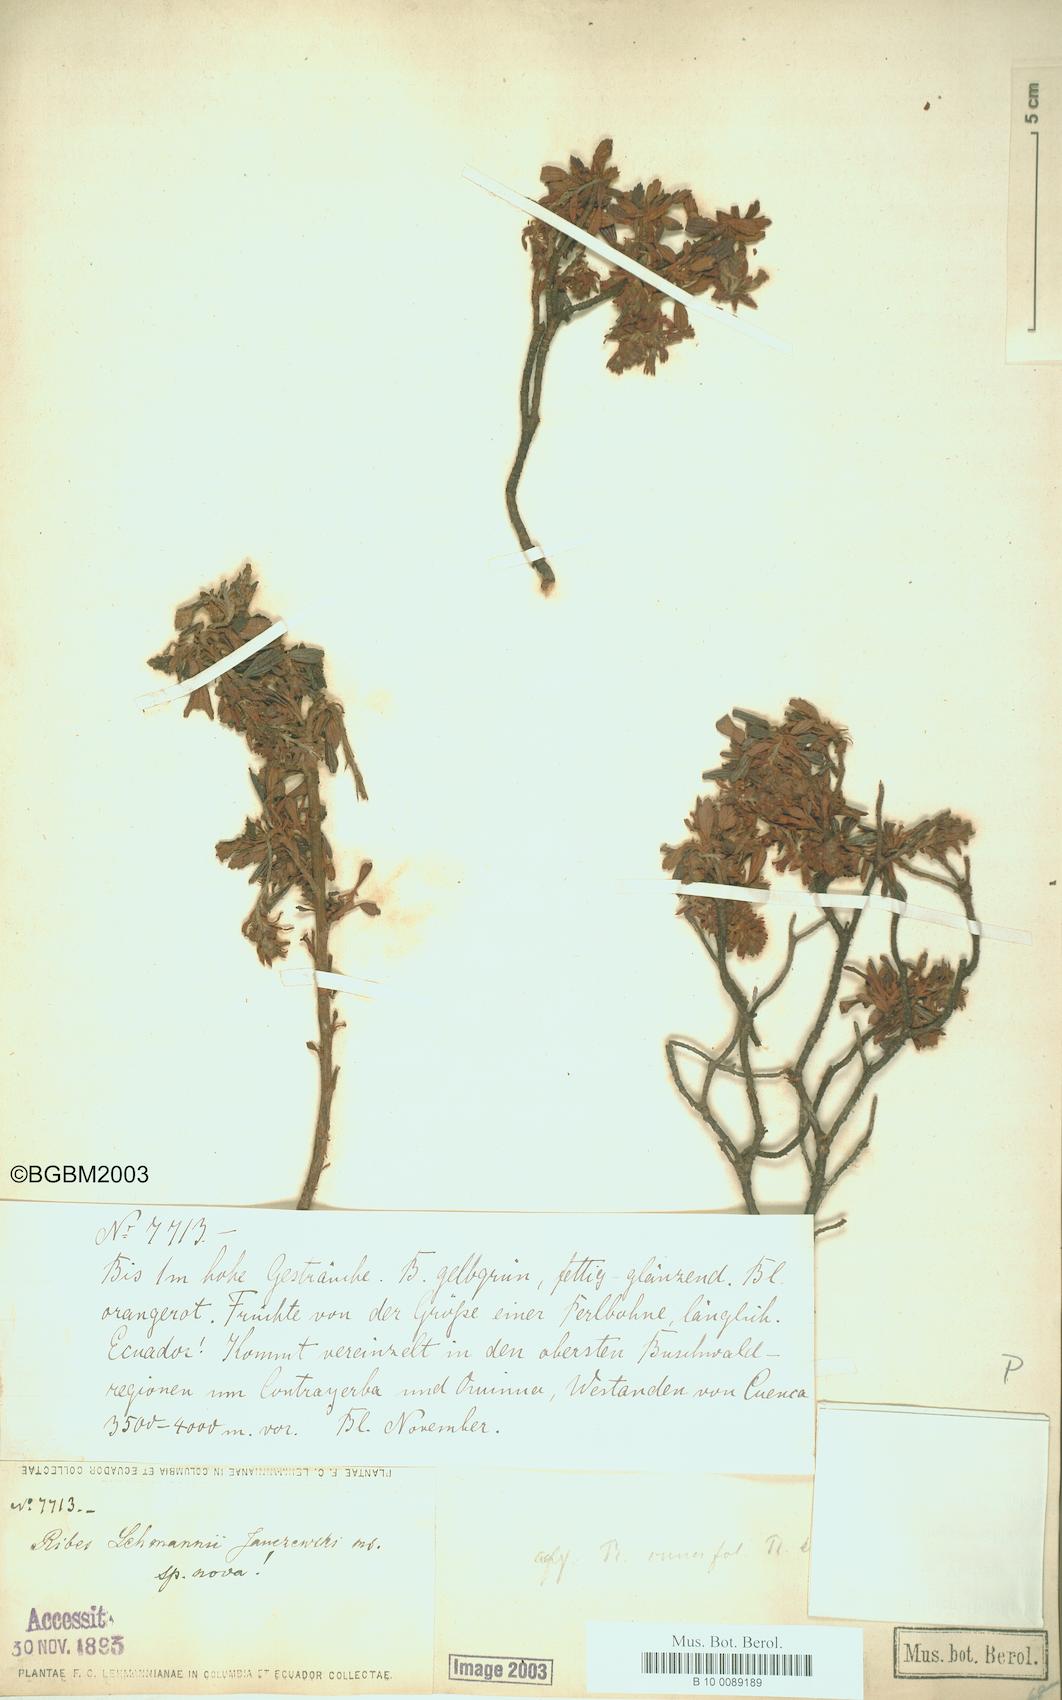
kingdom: Plantae
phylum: Tracheophyta
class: Magnoliopsida
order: Saxifragales
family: Grossulariaceae
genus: Ribes
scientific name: Ribes lehmannii
